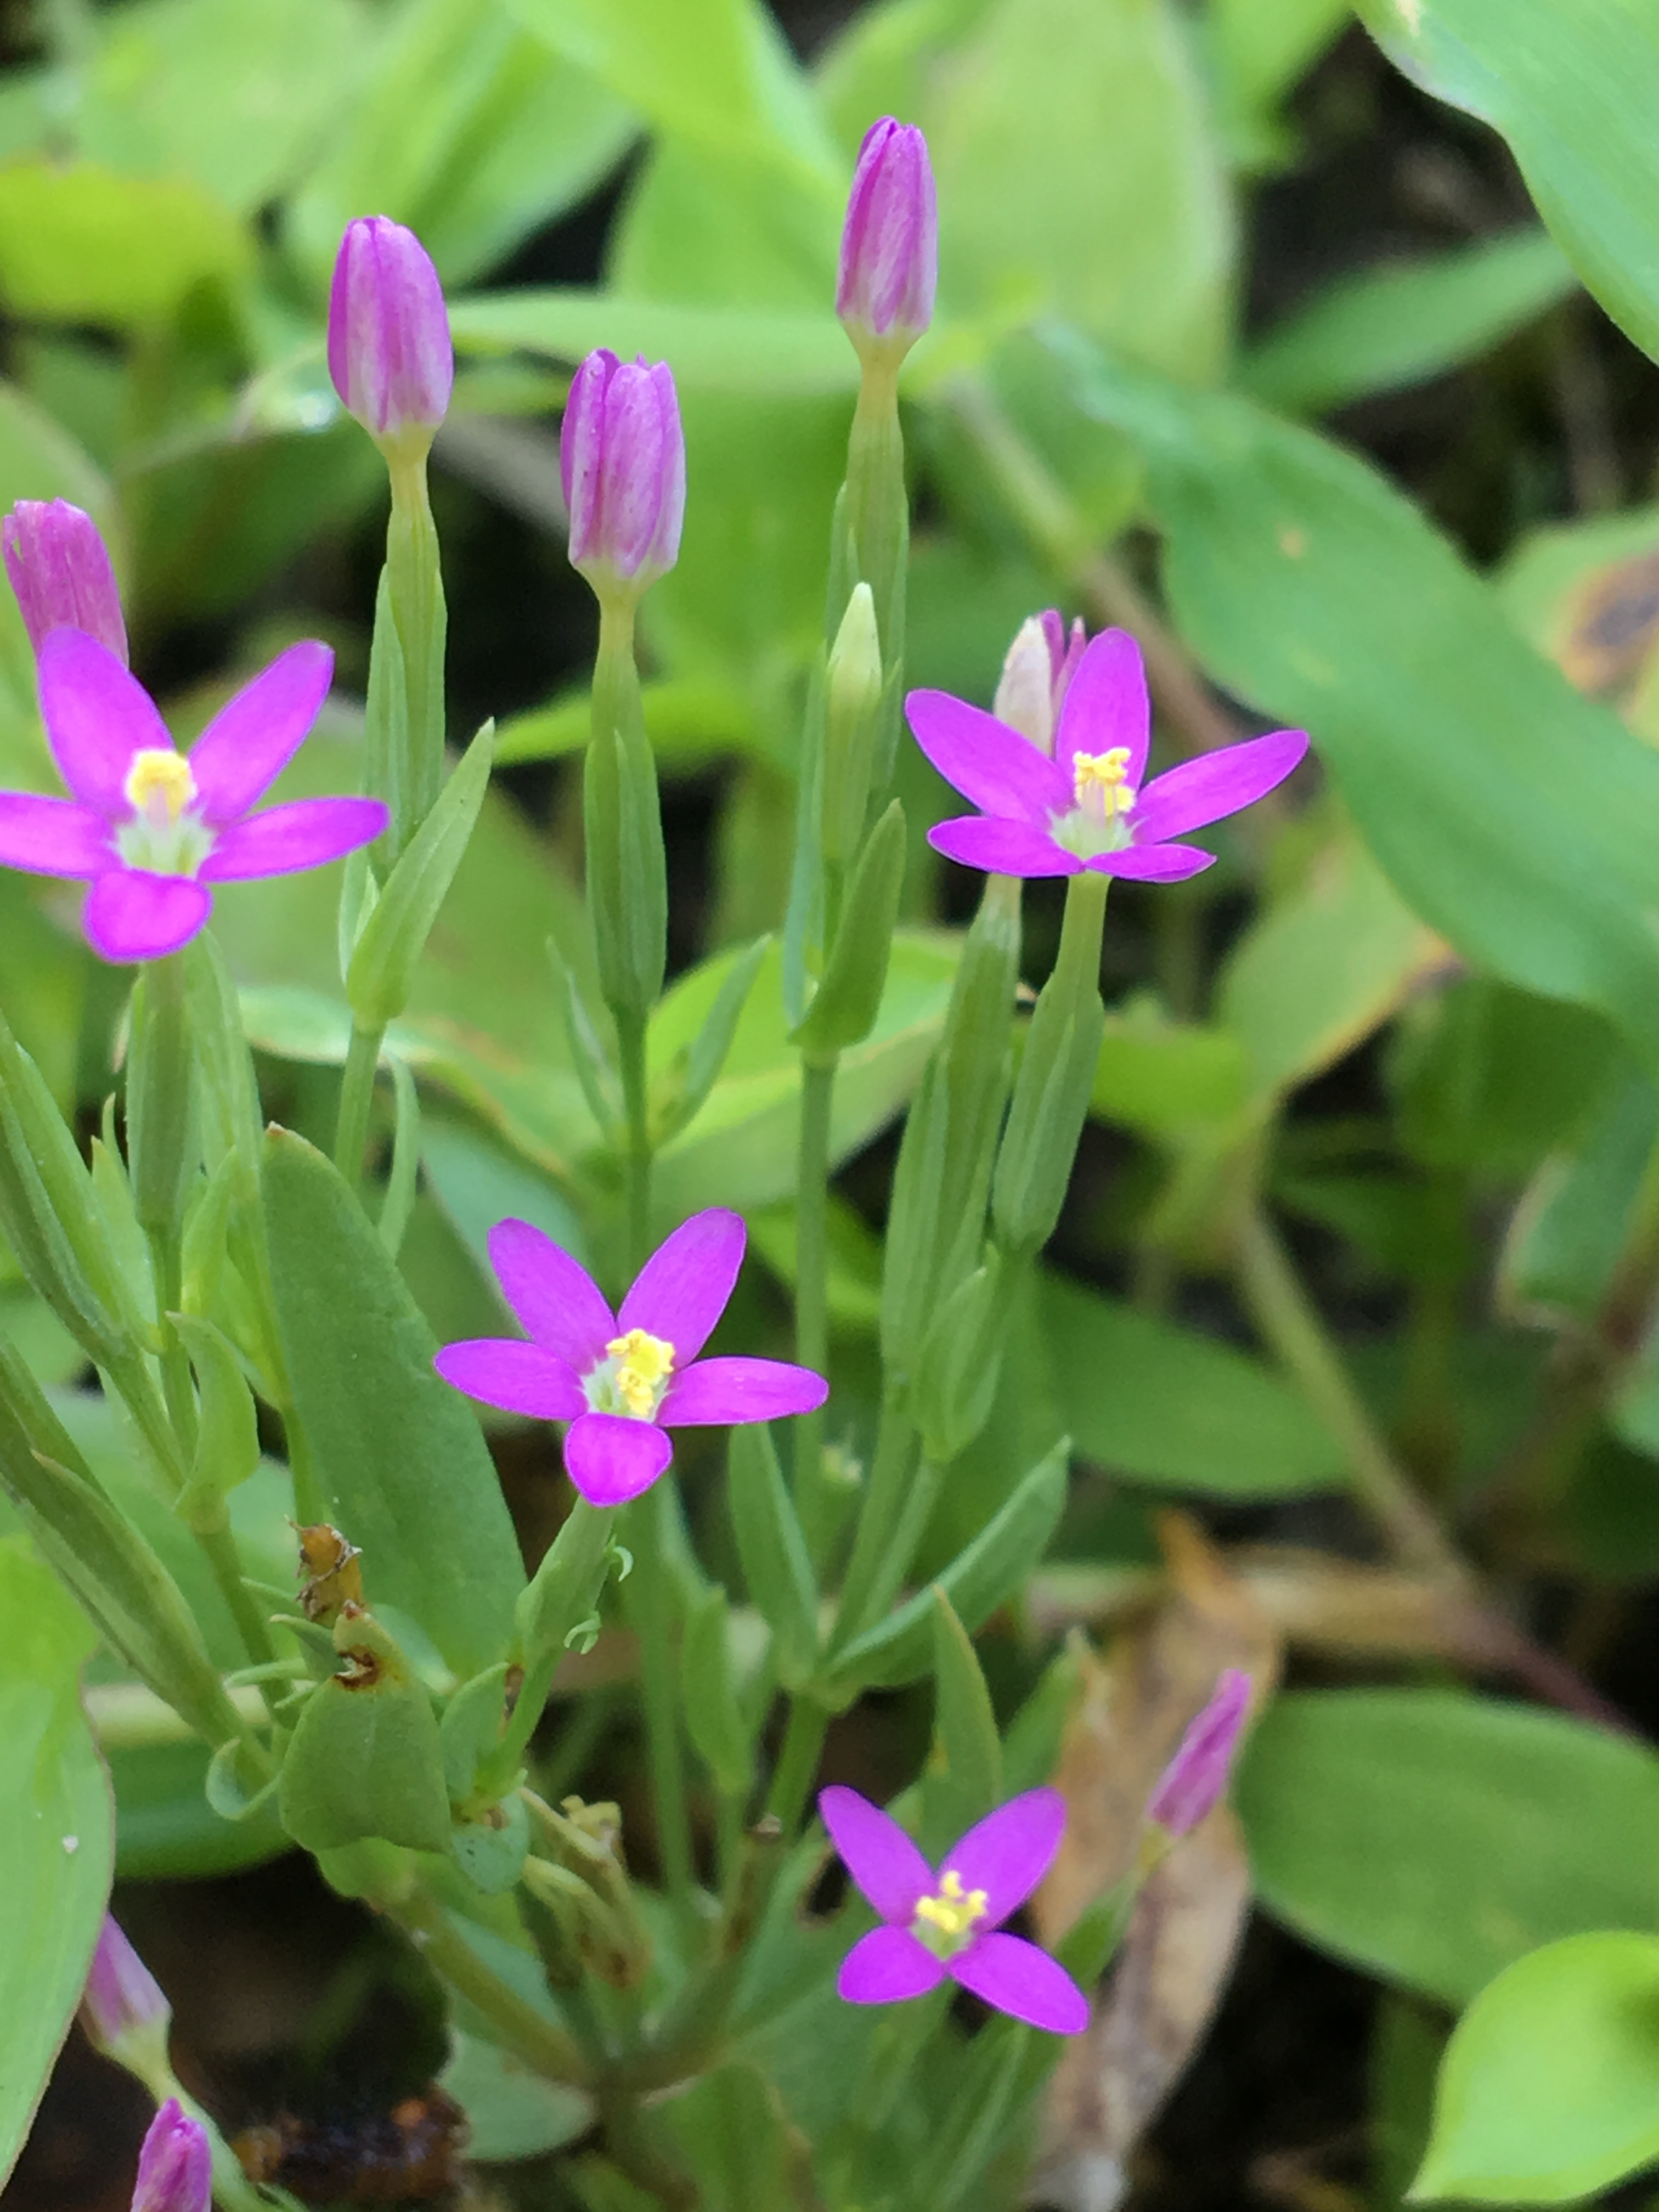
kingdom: Plantae
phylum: Tracheophyta
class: Magnoliopsida
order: Gentianales
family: Gentianaceae
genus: Centaurium
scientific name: Centaurium pulchellum
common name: branched centaury
